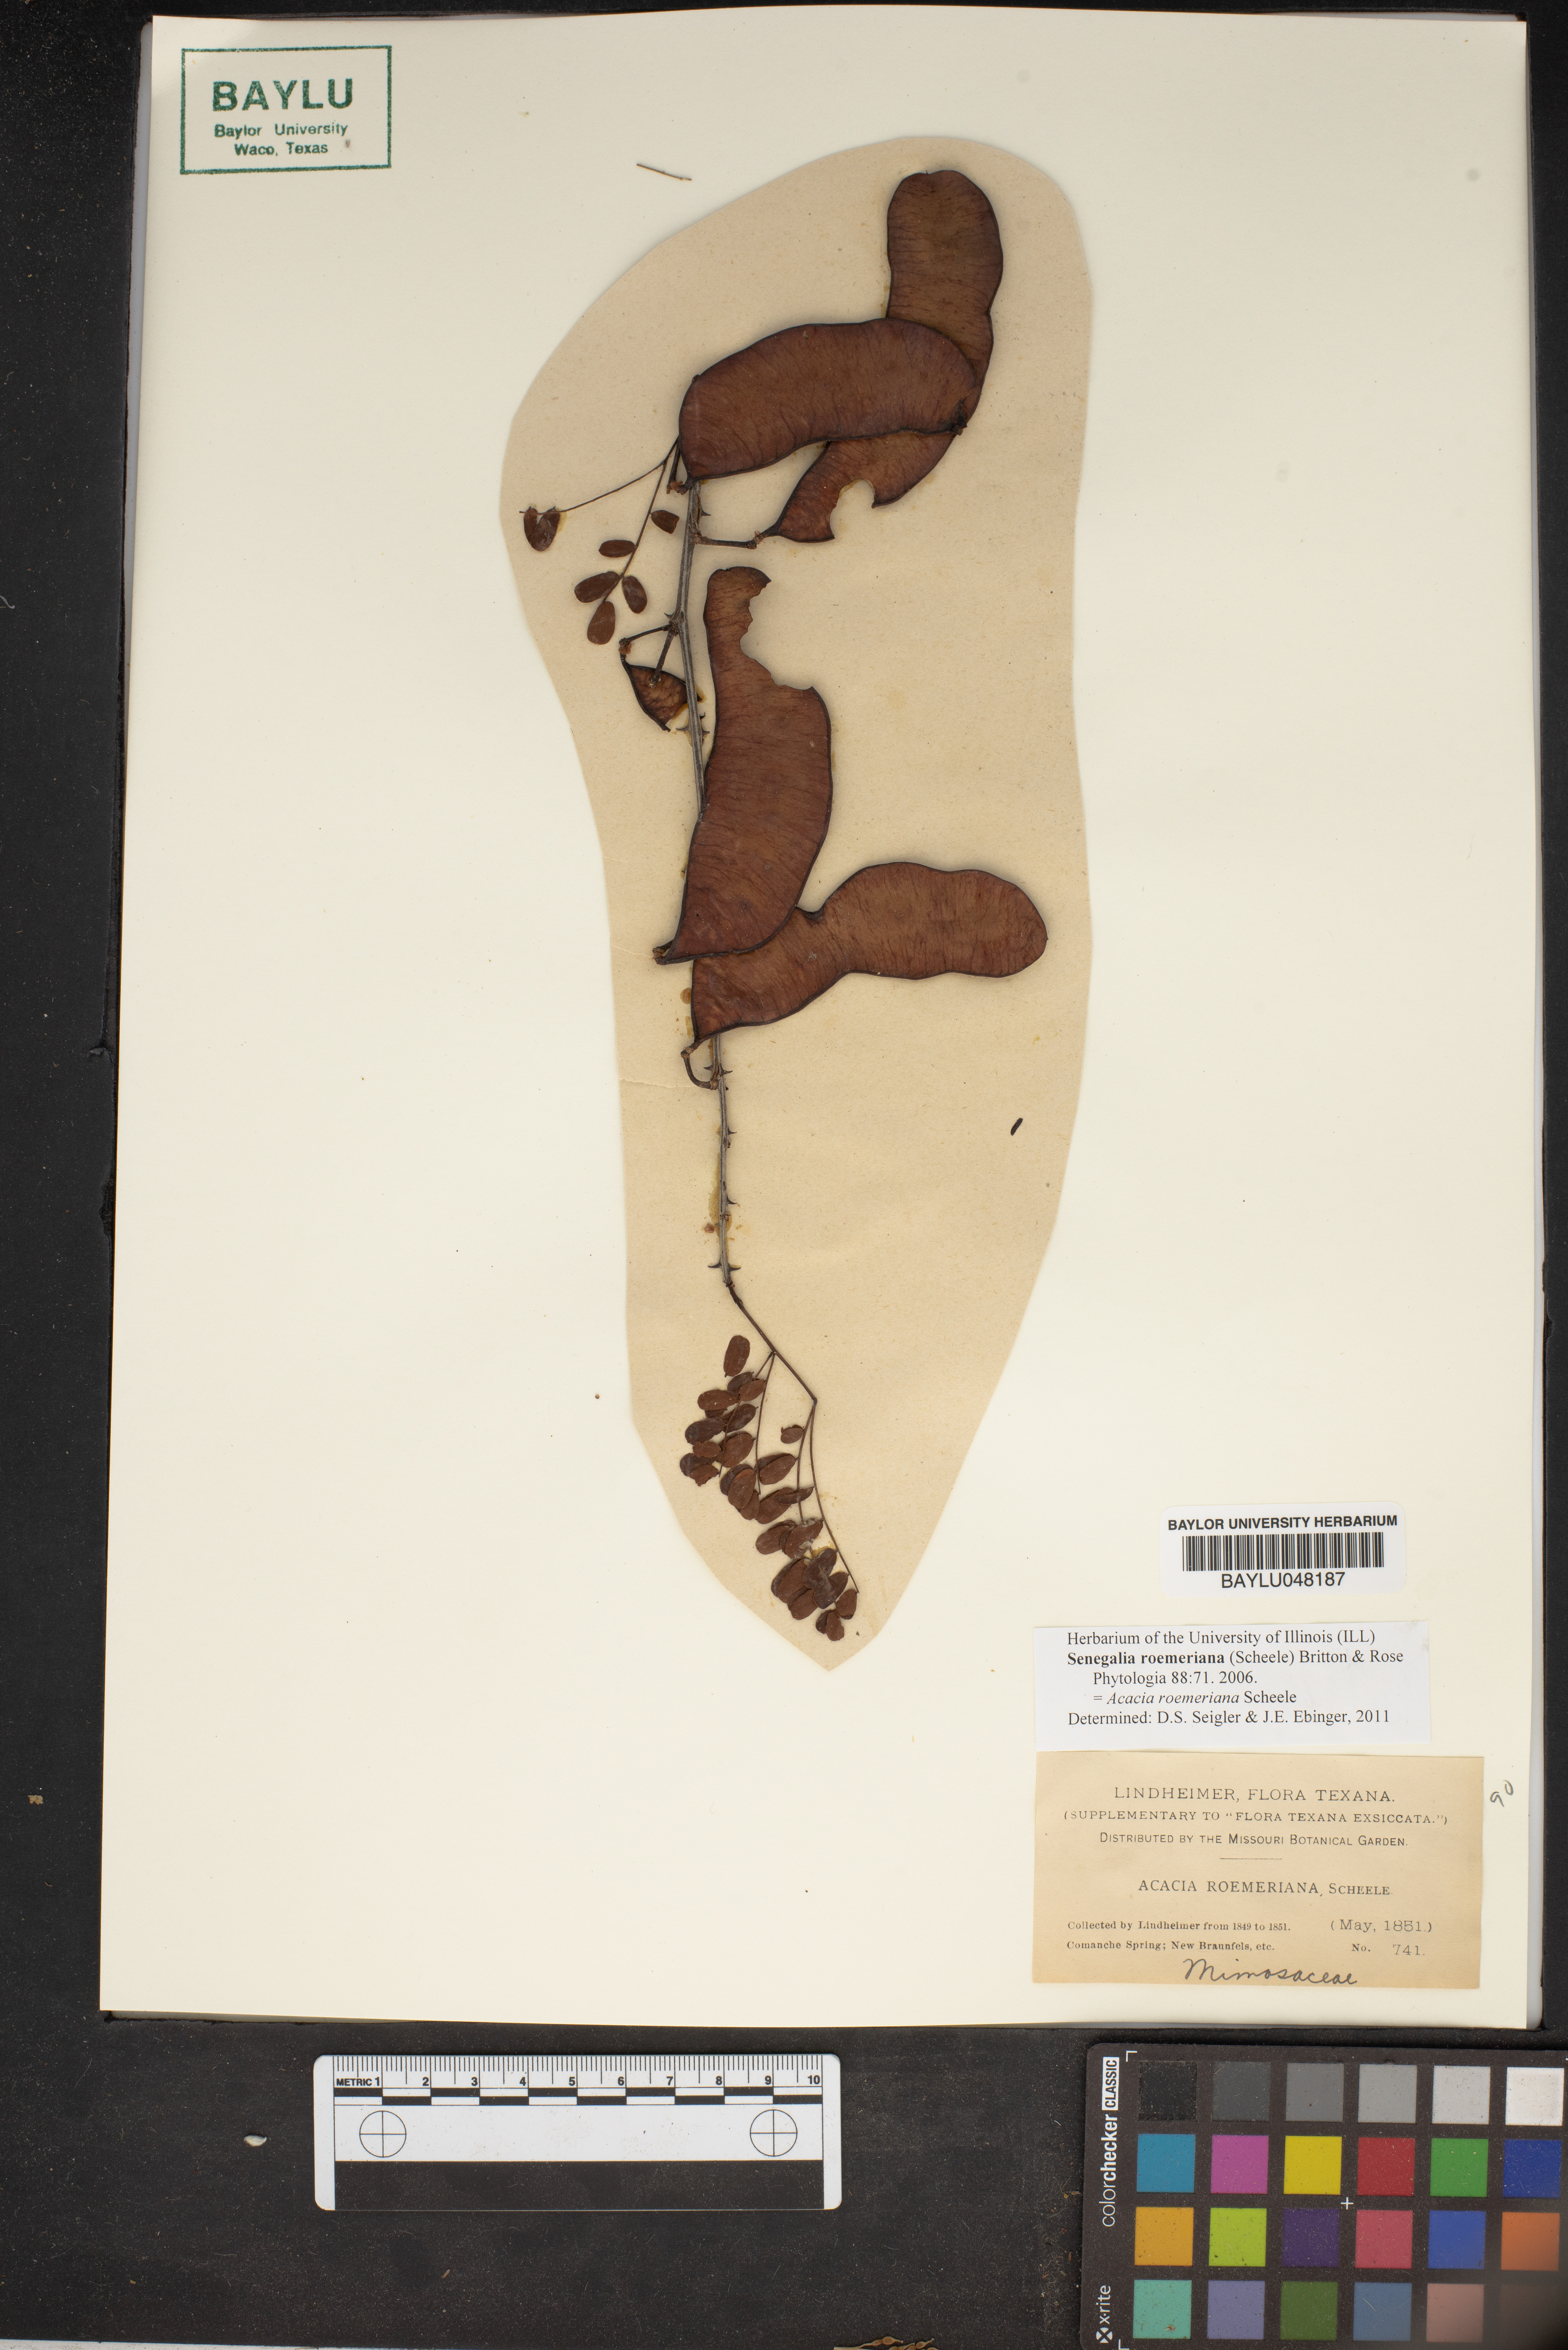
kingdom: Plantae
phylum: Tracheophyta
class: Magnoliopsida
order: Fabales
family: Fabaceae
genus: Senegalia
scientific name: Senegalia roemeriana
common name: Roemer's acacia
